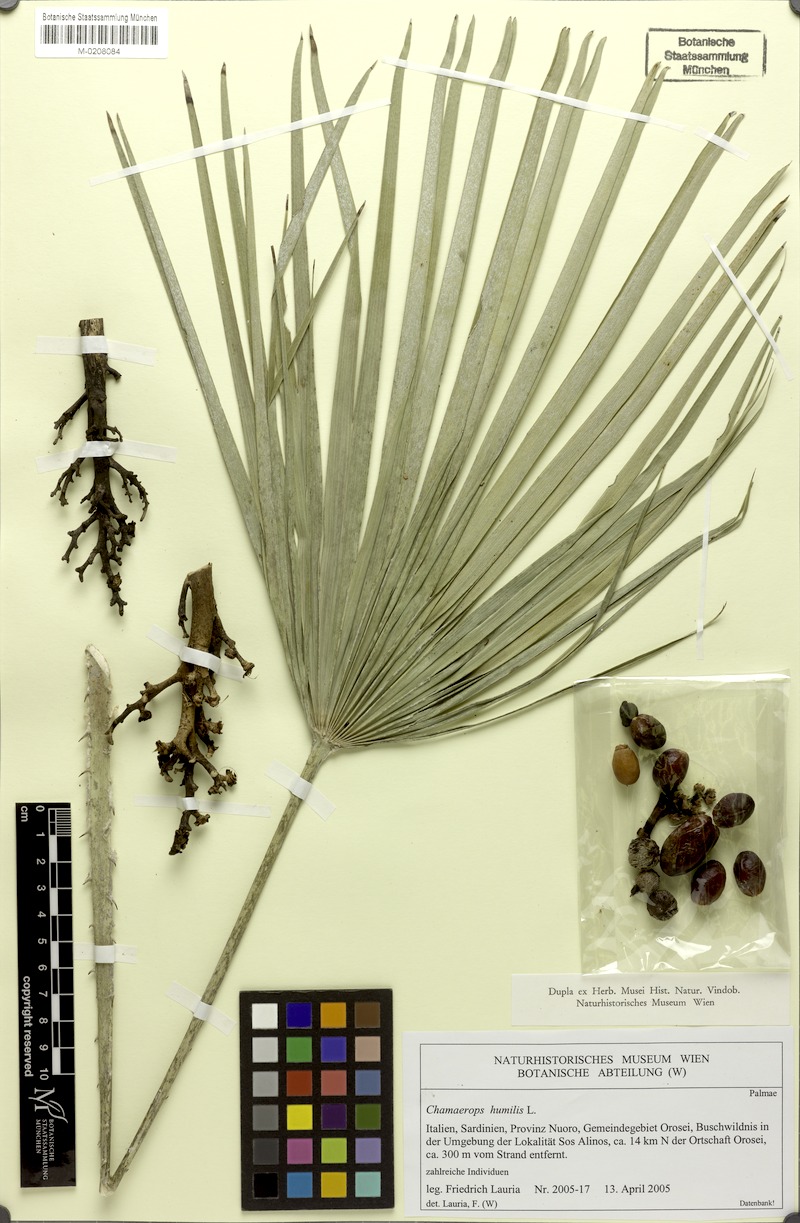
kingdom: Plantae
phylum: Tracheophyta
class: Liliopsida
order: Arecales
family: Arecaceae
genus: Chamaerops
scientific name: Chamaerops humilis
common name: Dwarf fan palm
